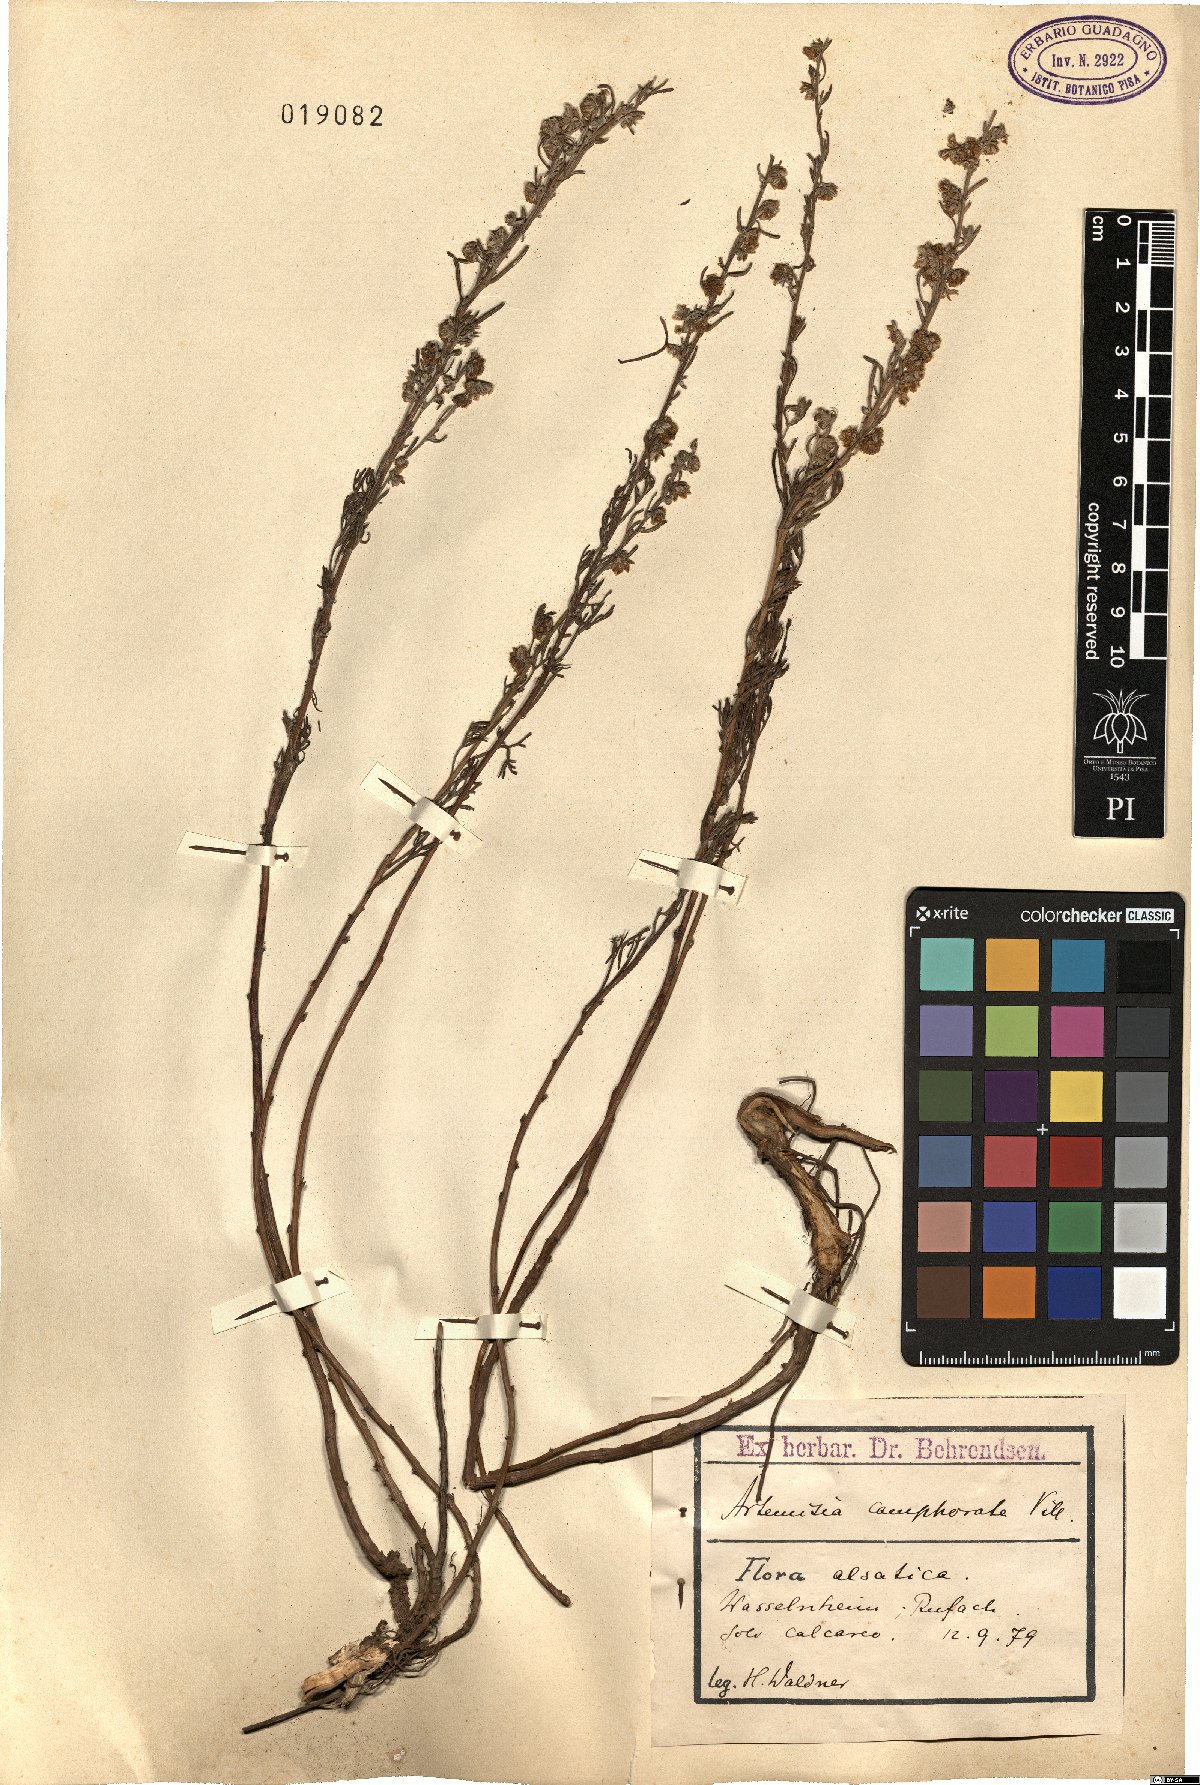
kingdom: Plantae
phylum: Tracheophyta
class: Magnoliopsida
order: Asterales
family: Asteraceae
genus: Artemisia
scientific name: Artemisia alba
